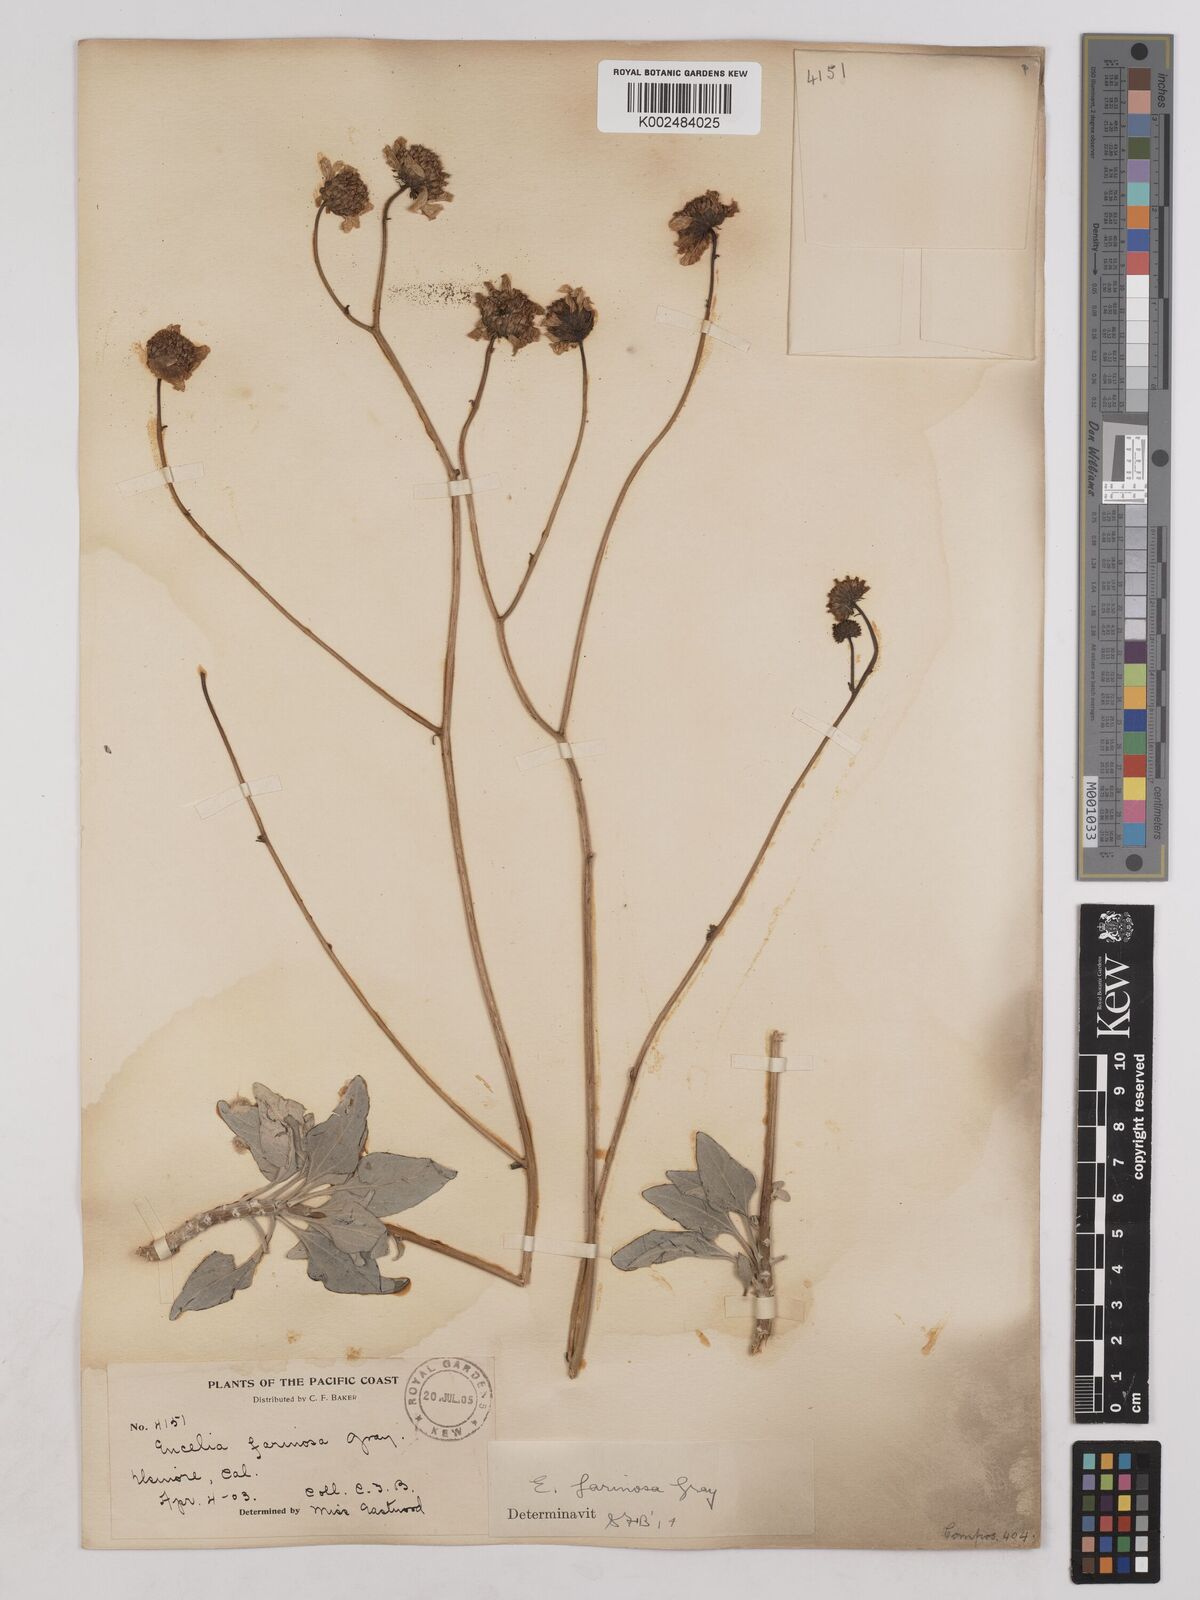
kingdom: Plantae
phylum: Tracheophyta
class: Magnoliopsida
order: Asterales
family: Asteraceae
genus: Encelia
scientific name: Encelia farinosa
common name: Brittlebush
